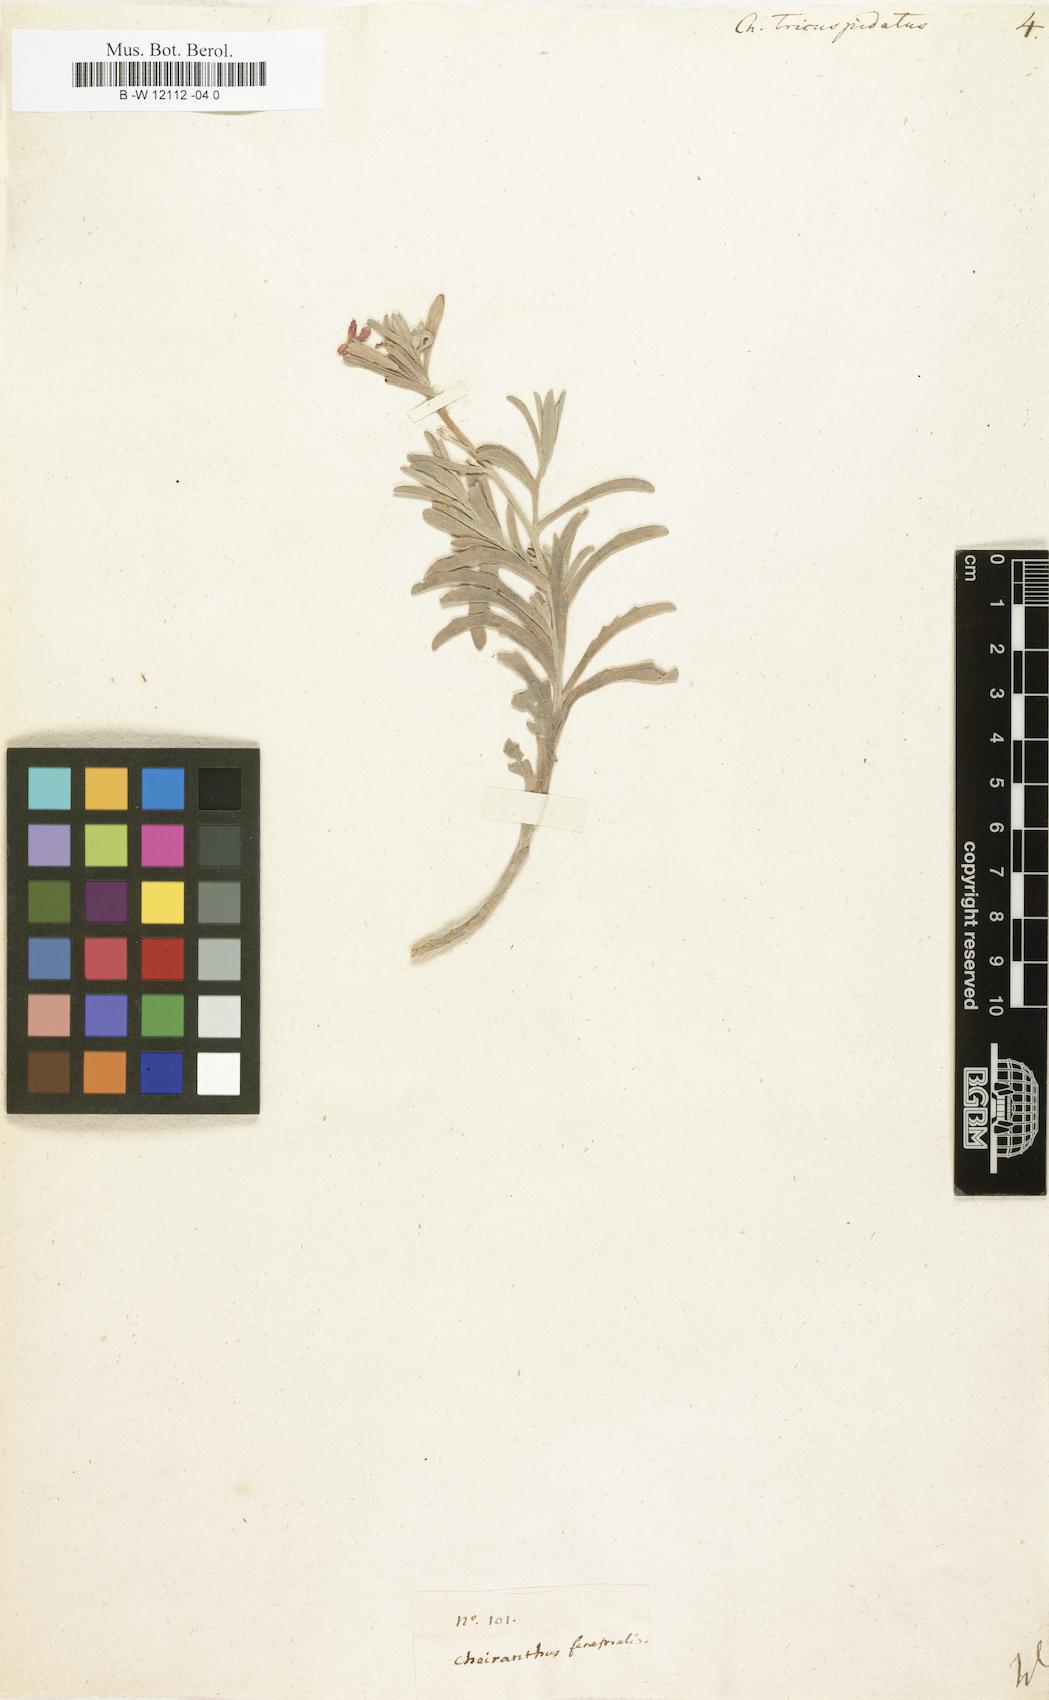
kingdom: Plantae
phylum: Tracheophyta
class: Magnoliopsida
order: Brassicales
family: Brassicaceae
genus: Matthiola
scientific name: Matthiola
